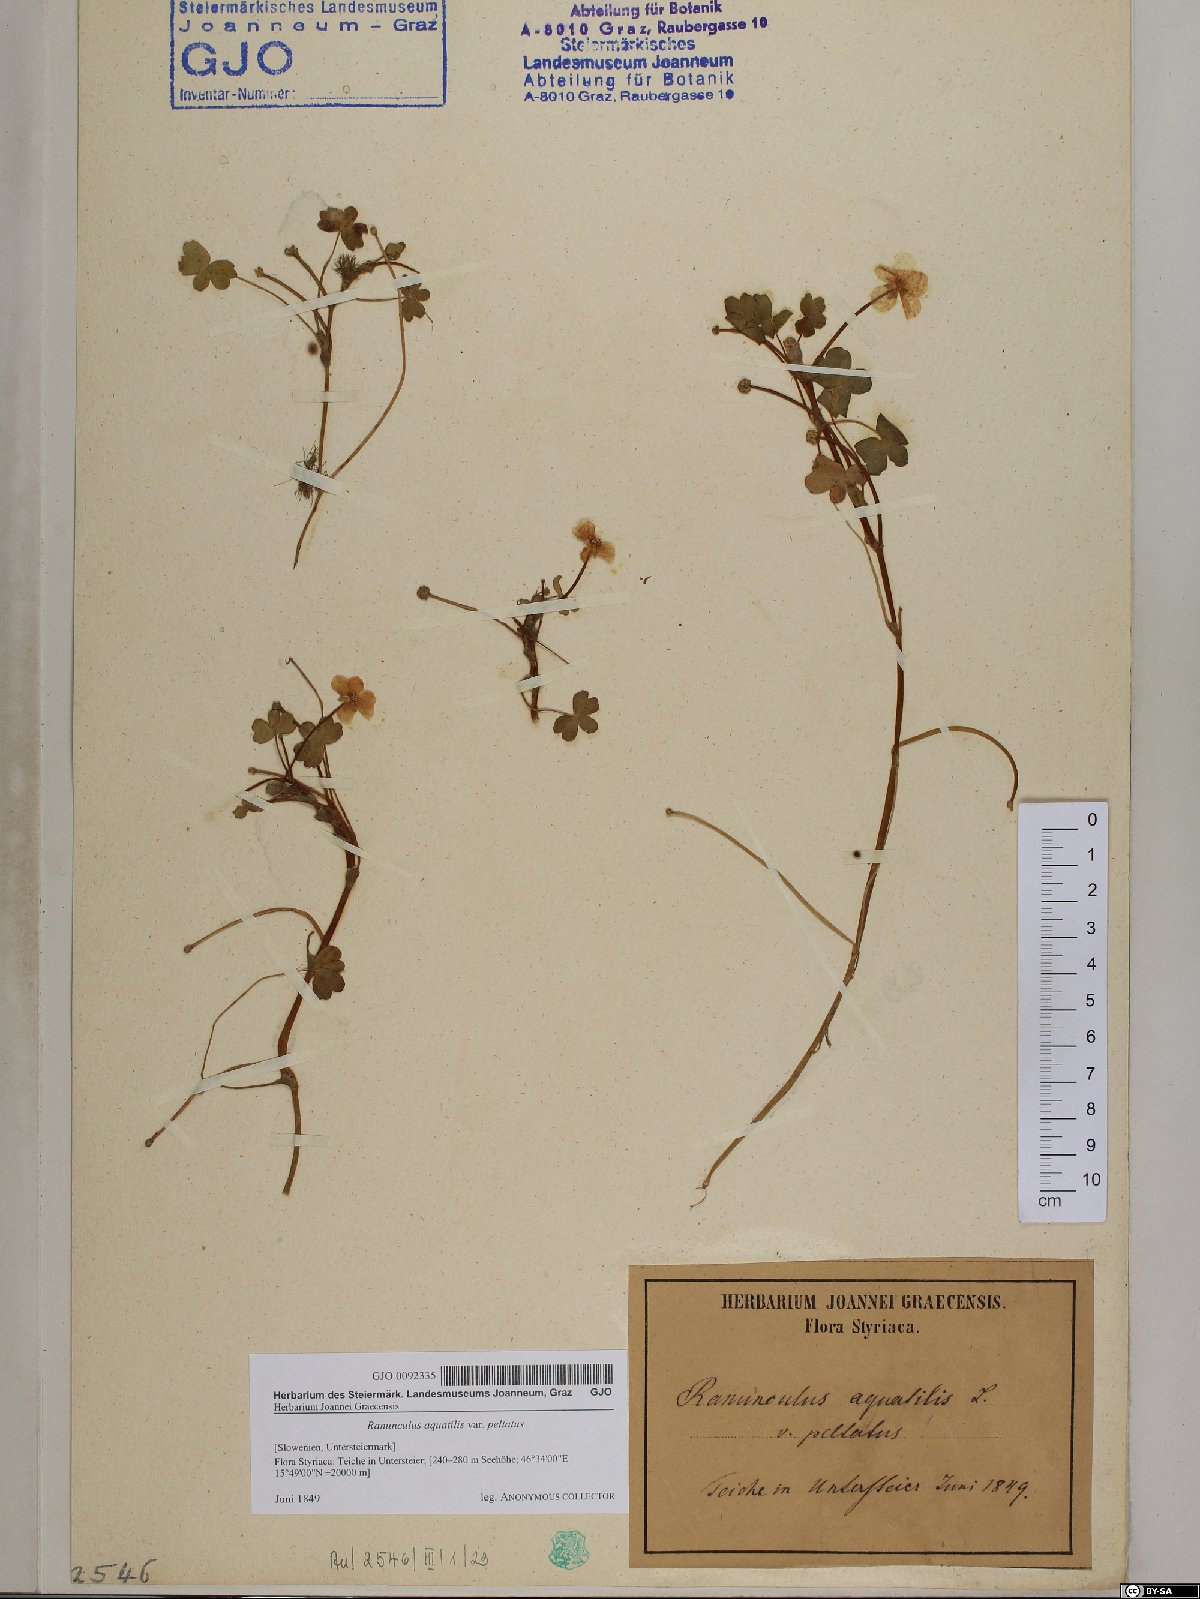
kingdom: Plantae
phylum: Tracheophyta
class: Magnoliopsida
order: Ranunculales
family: Ranunculaceae
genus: Ranunculus
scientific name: Ranunculus peltatus
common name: Pond water-crowfoot
